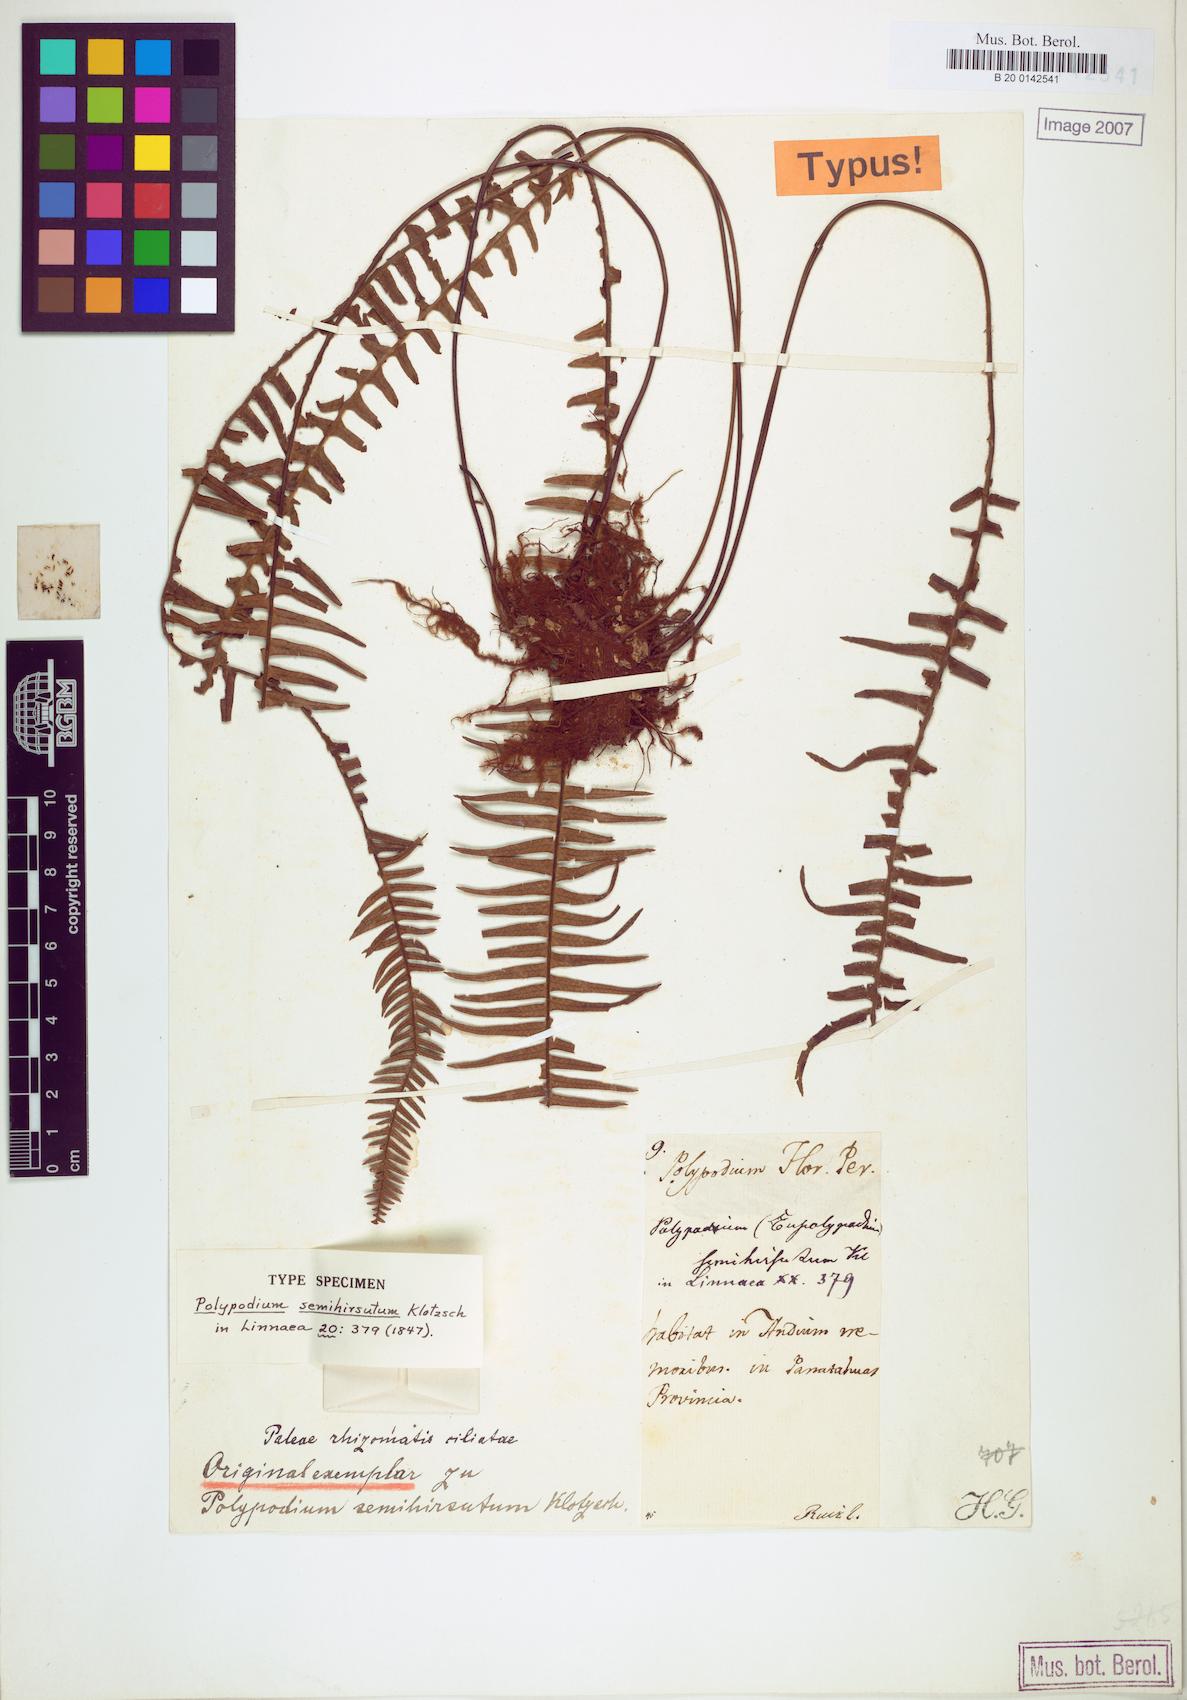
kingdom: Plantae
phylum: Tracheophyta
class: Polypodiopsida
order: Polypodiales
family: Polypodiaceae
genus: Mycopteris
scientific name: Mycopteris semihirsuta
